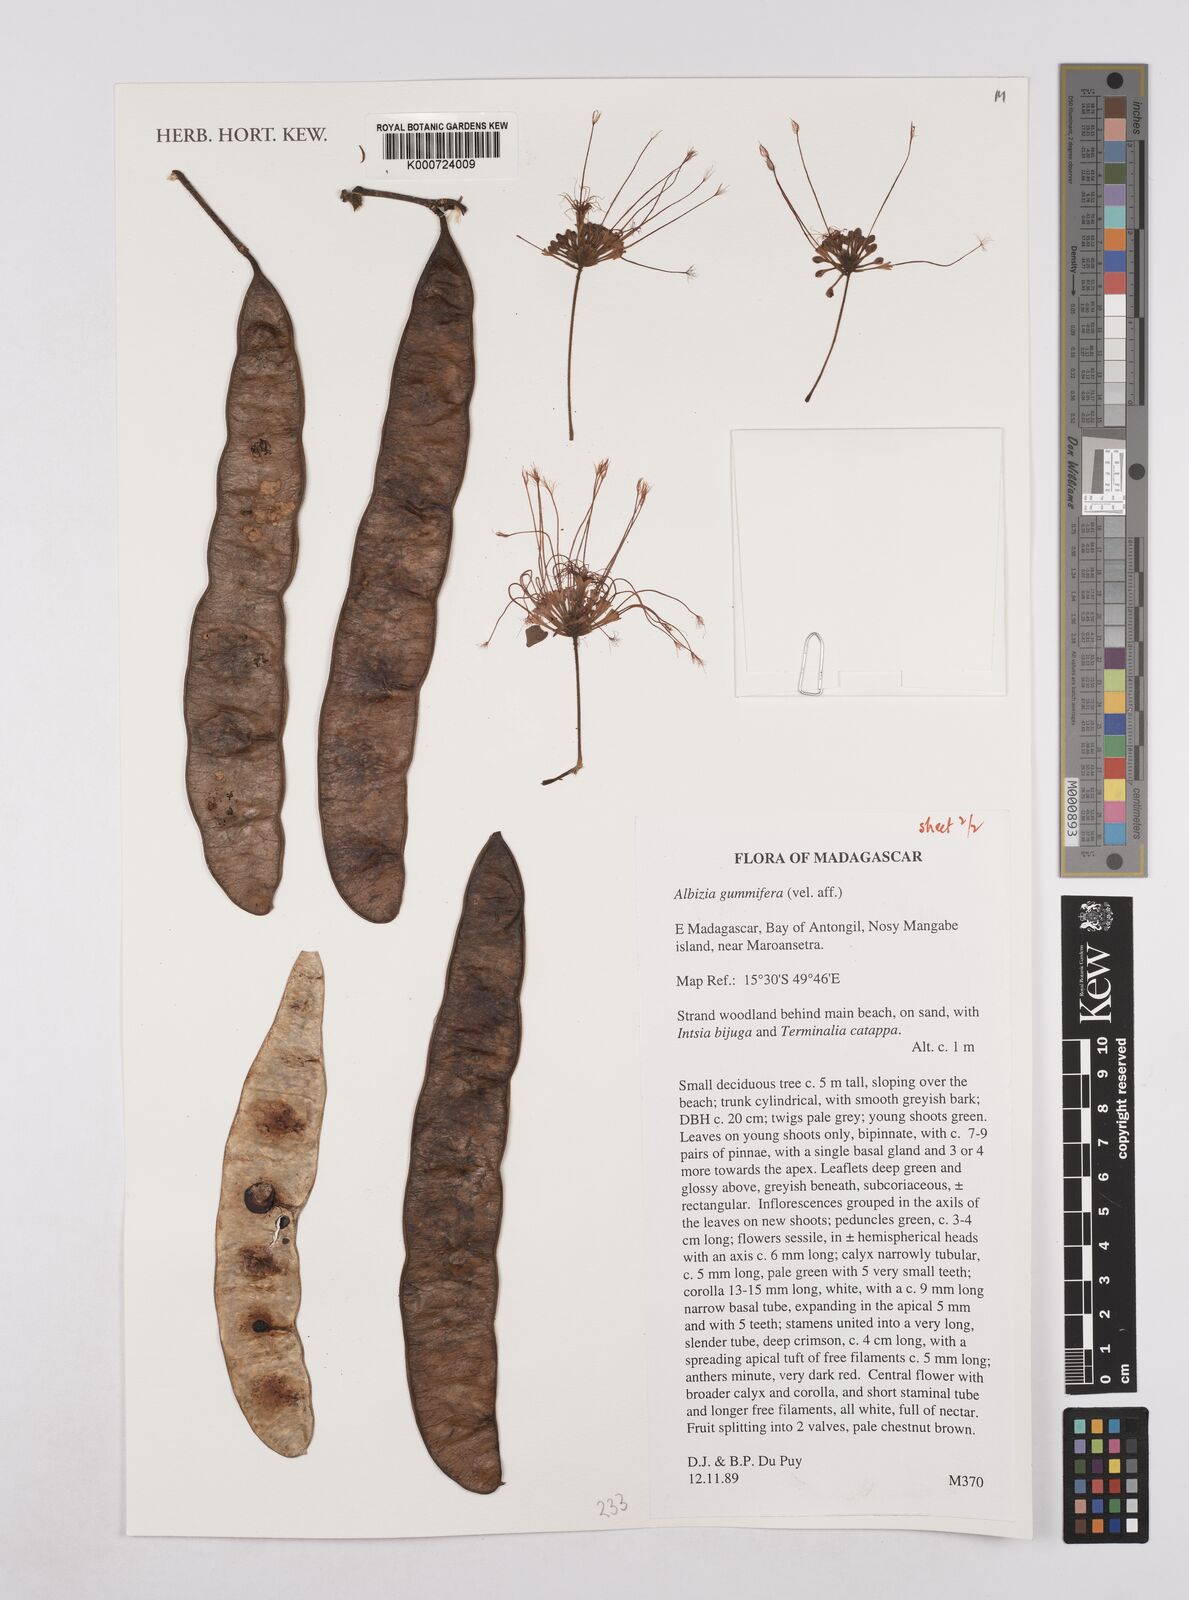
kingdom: Plantae
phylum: Tracheophyta
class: Magnoliopsida
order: Fabales
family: Fabaceae
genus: Albizia
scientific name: Albizia gummifera
